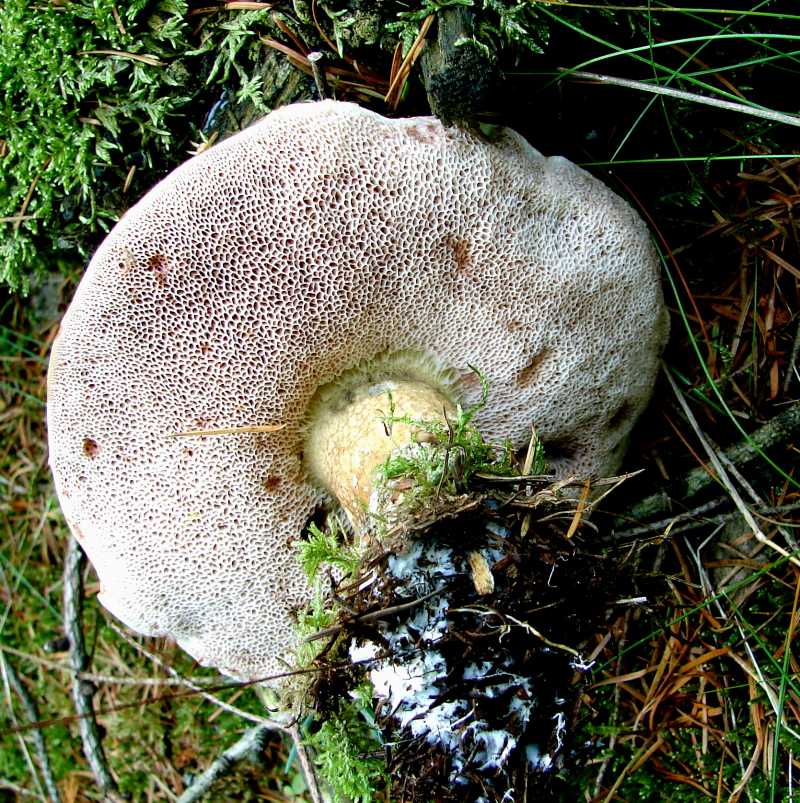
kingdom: Fungi
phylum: Basidiomycota
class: Agaricomycetes
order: Boletales
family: Boletaceae
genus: Tylopilus
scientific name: Tylopilus felleus
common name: galderørhat
